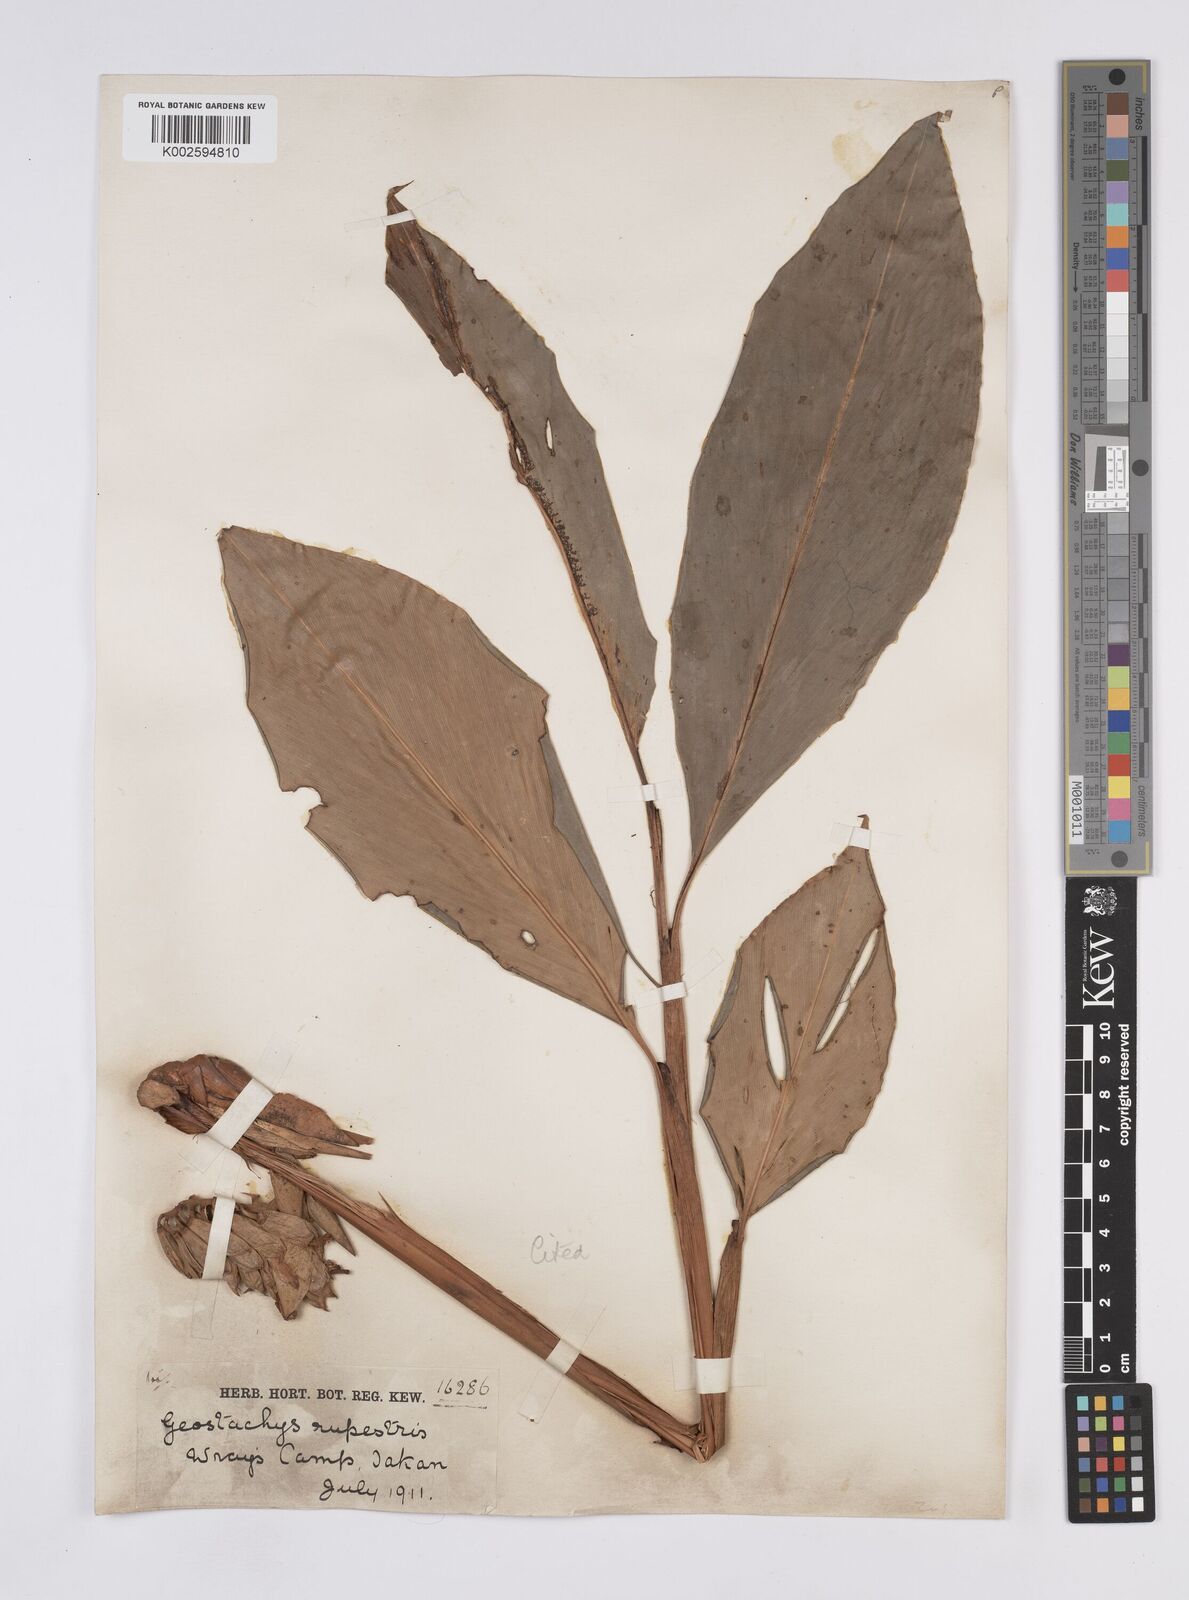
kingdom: Plantae
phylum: Tracheophyta
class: Liliopsida
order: Zingiberales
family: Zingiberaceae
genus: Geostachys
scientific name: Geostachys tahanensis
